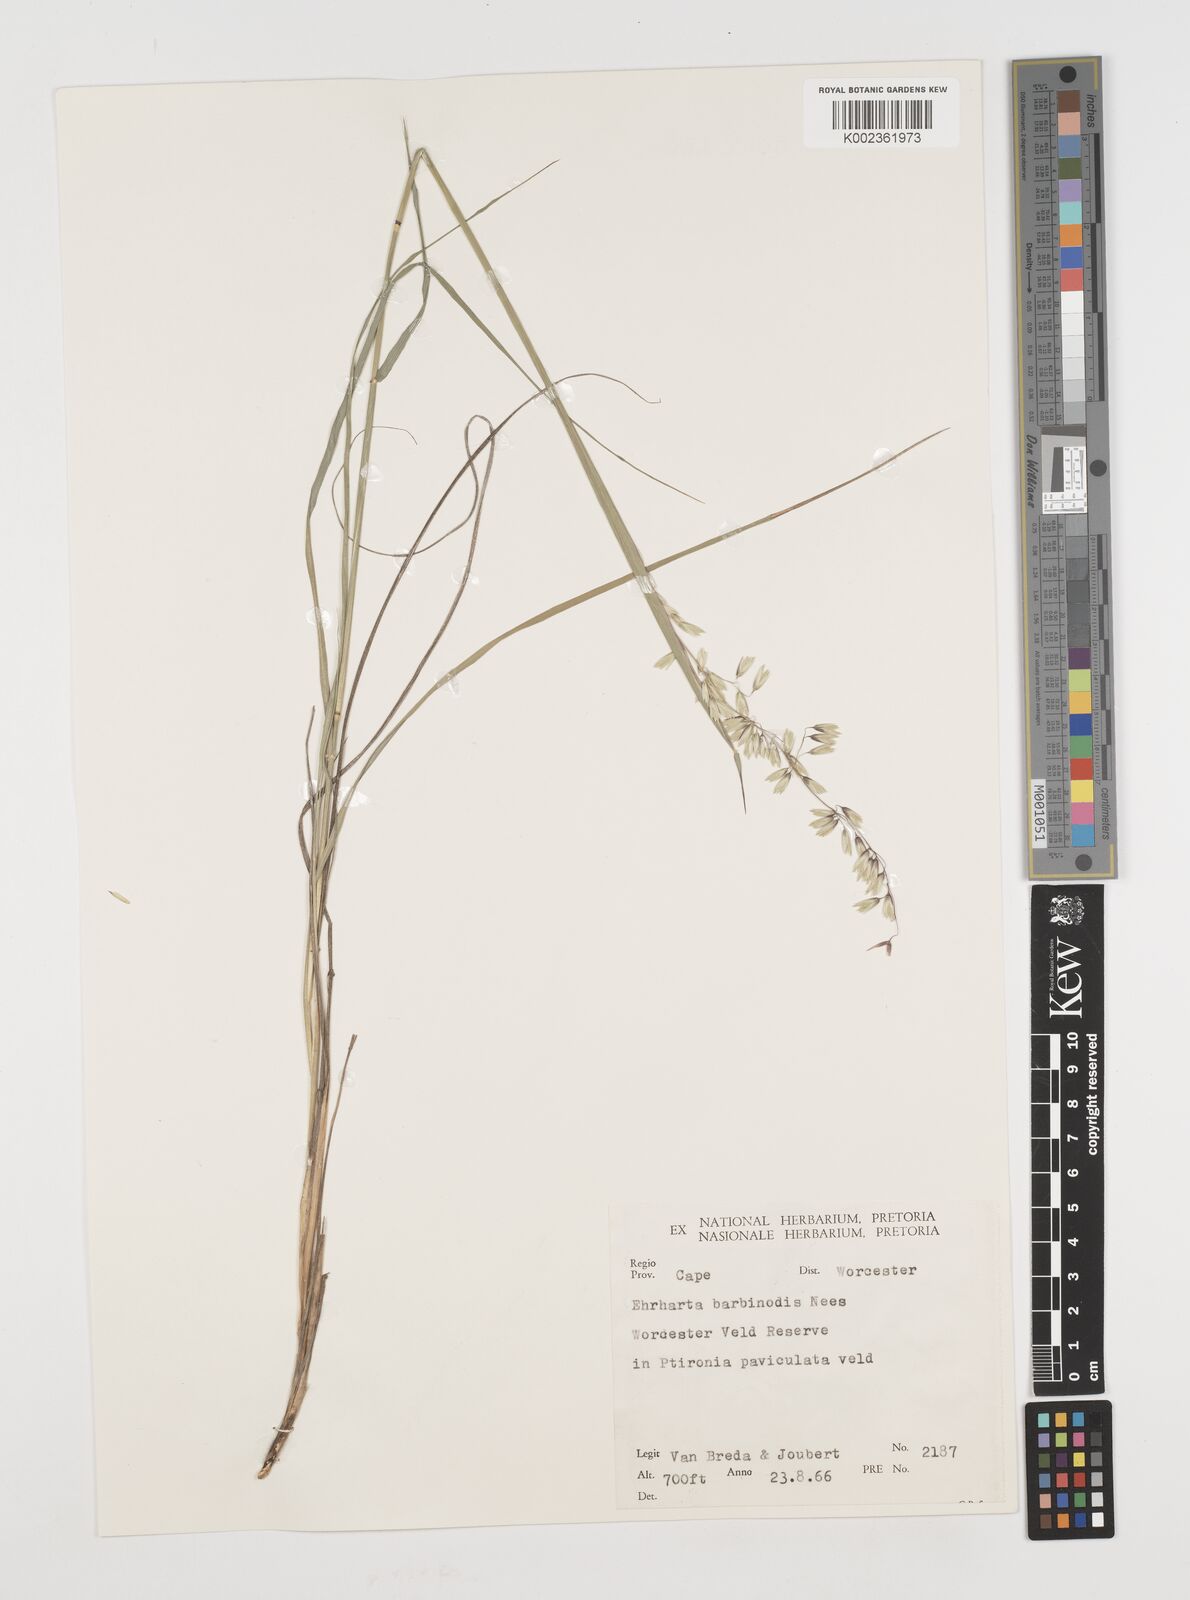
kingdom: Plantae
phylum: Tracheophyta
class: Liliopsida
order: Poales
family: Poaceae
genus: Ehrharta
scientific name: Ehrharta calycina
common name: Perennial veldtgrass
